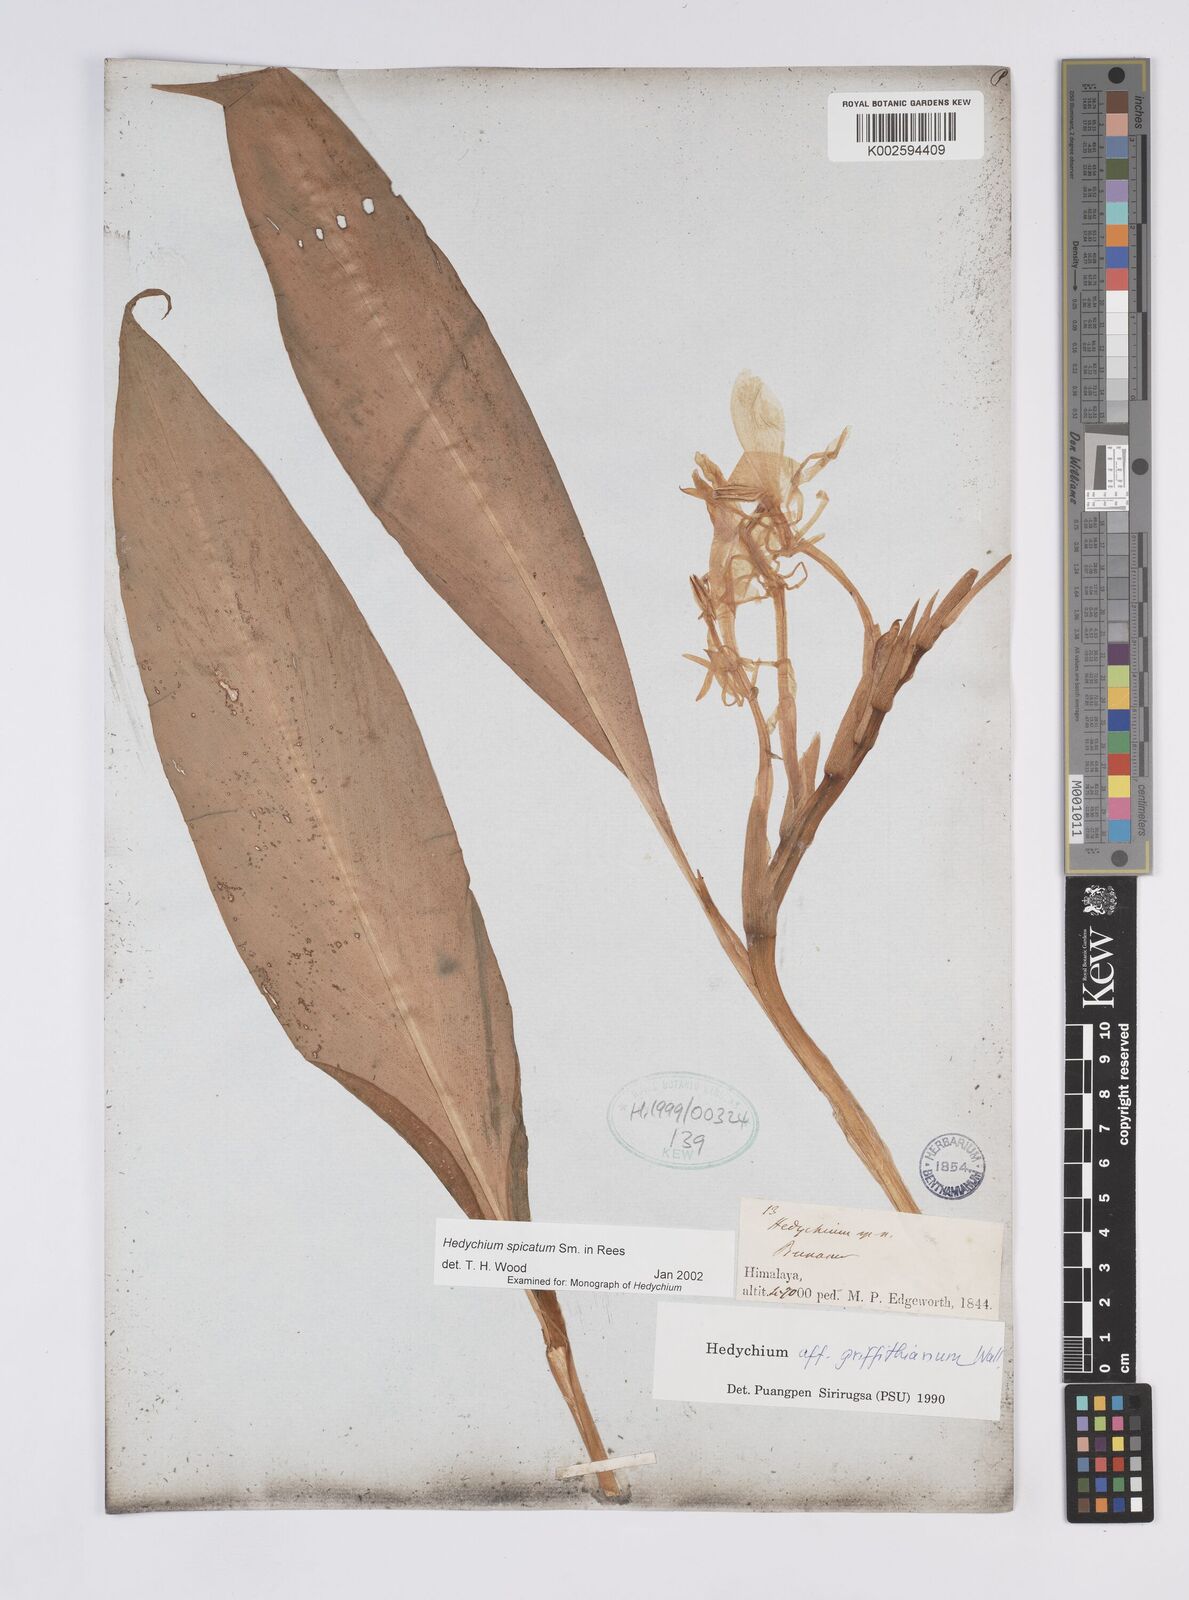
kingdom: Plantae
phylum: Tracheophyta
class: Liliopsida
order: Zingiberales
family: Zingiberaceae
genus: Hedychium
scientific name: Hedychium spicatum
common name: Spiked ginger-lily
